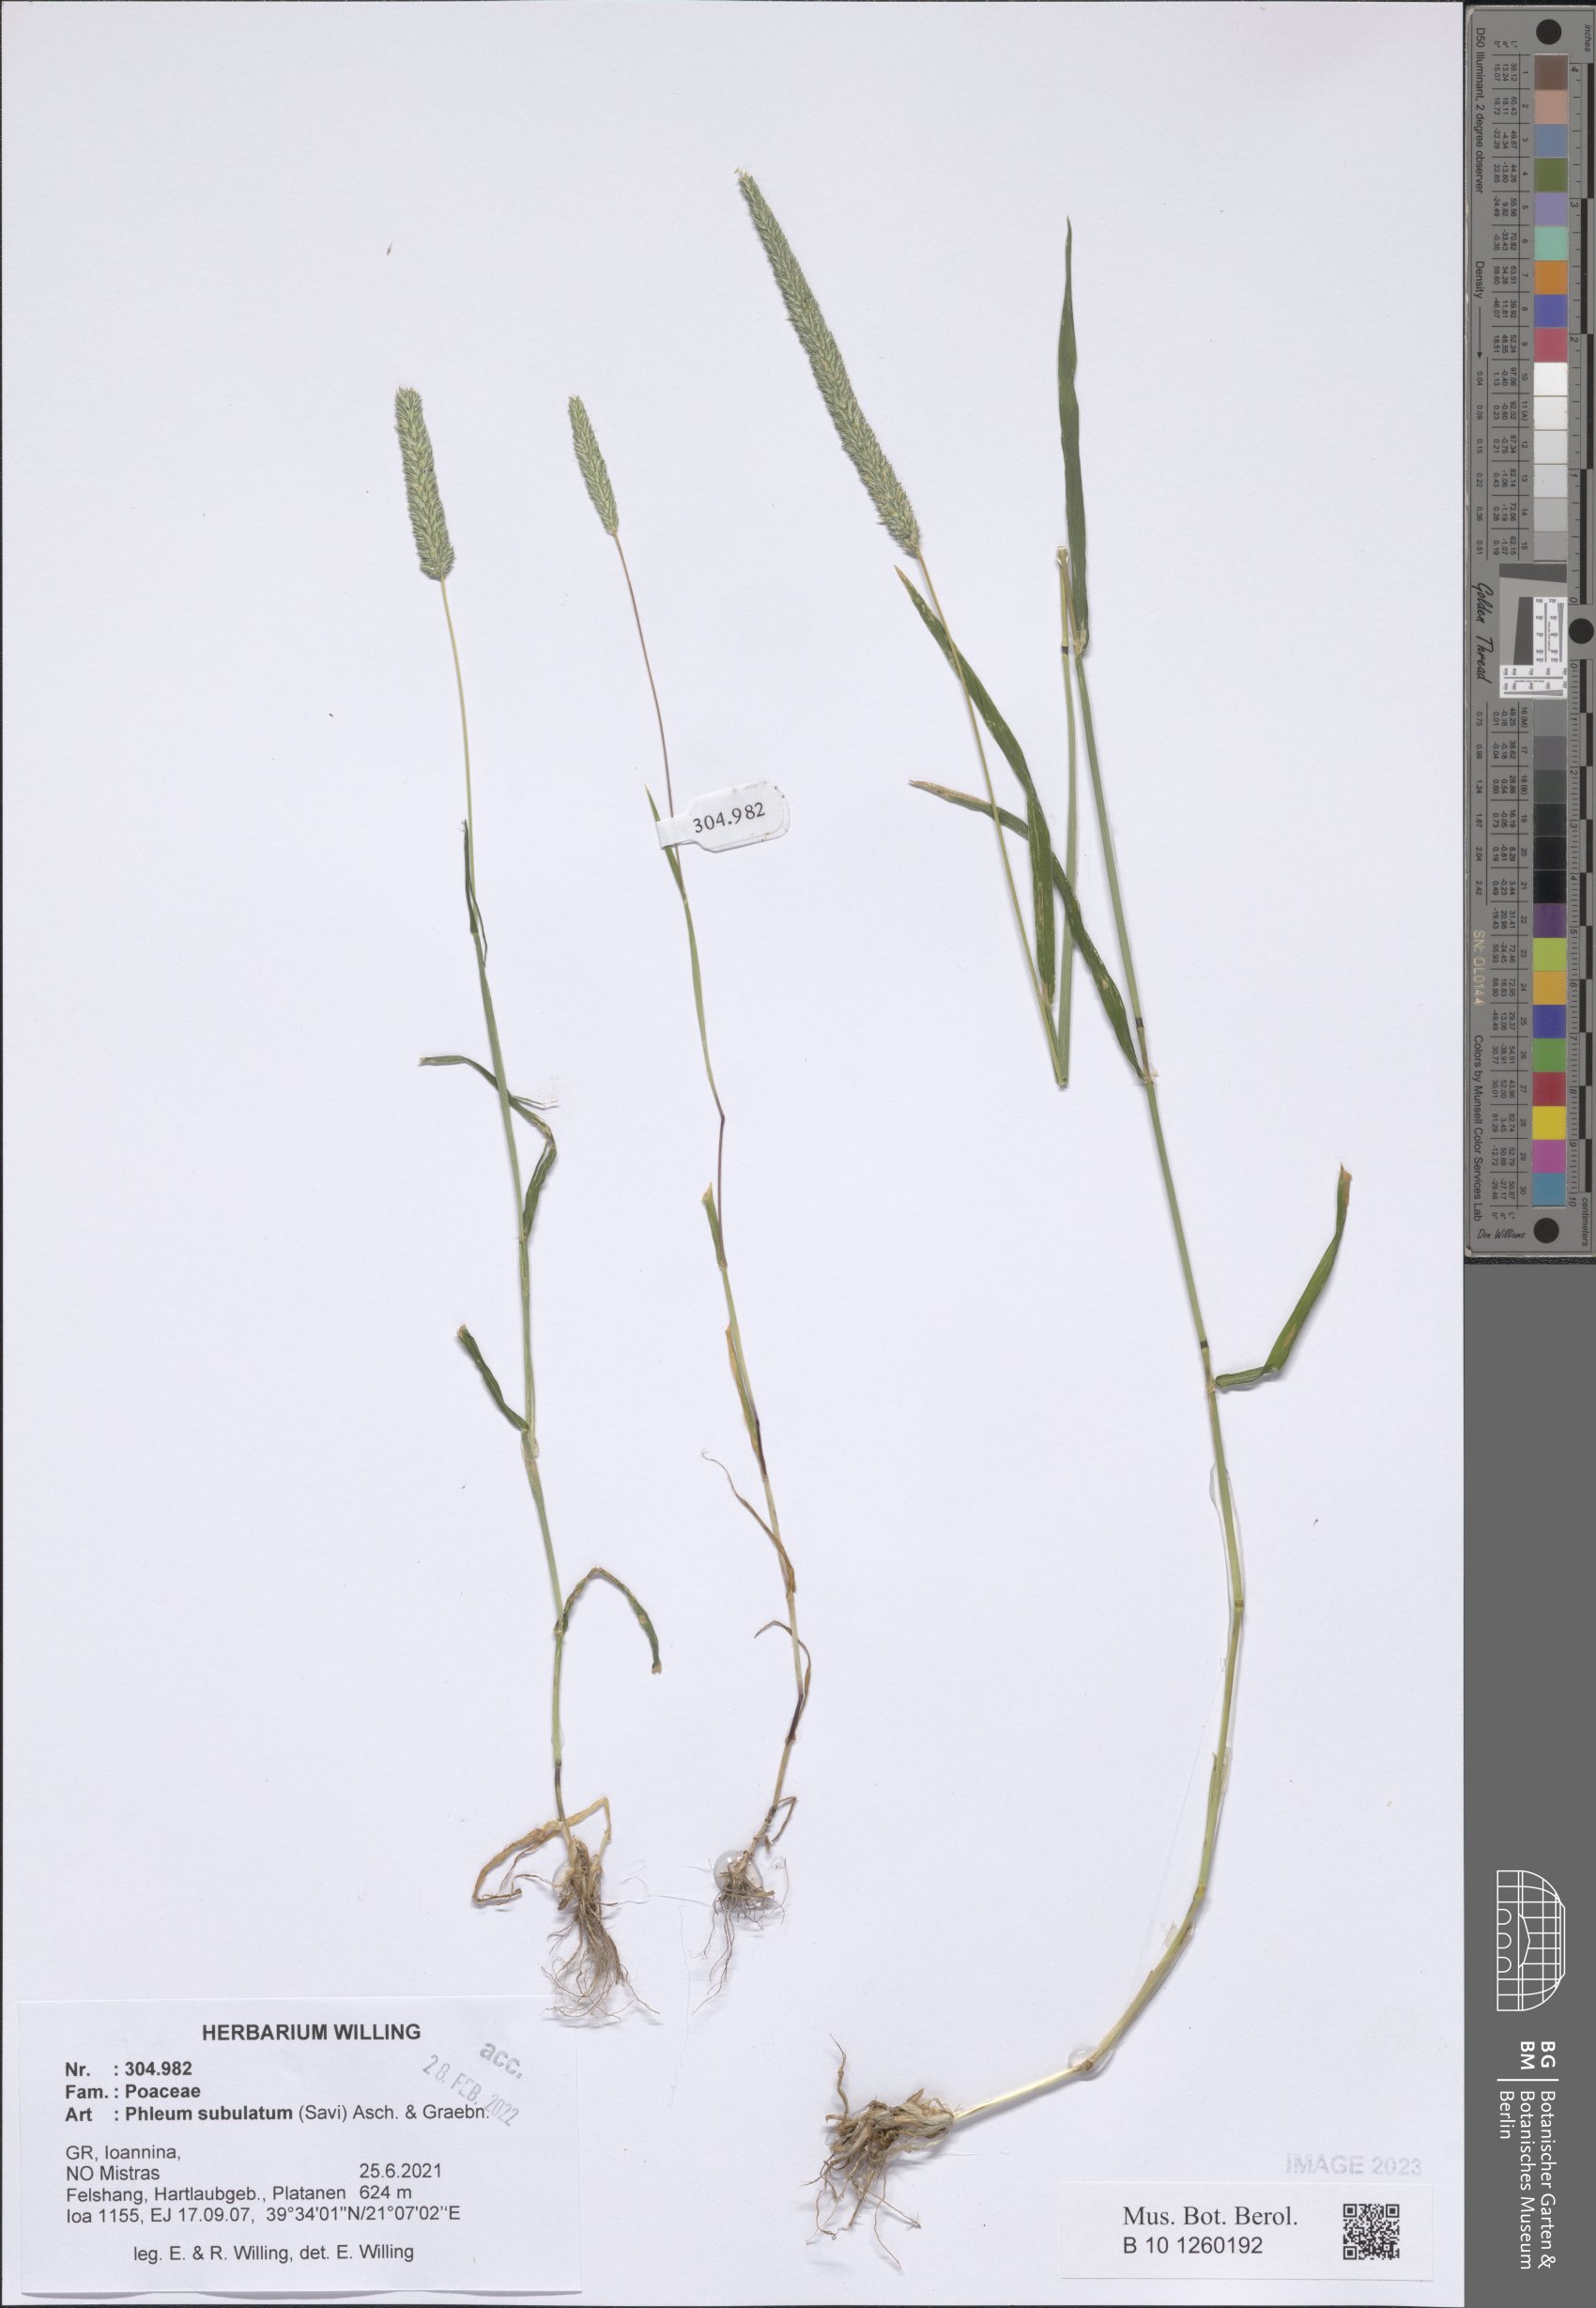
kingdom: Plantae
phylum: Tracheophyta
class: Liliopsida
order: Poales
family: Poaceae
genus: Phleum
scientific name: Phleum subulatum
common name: Italian timothy
